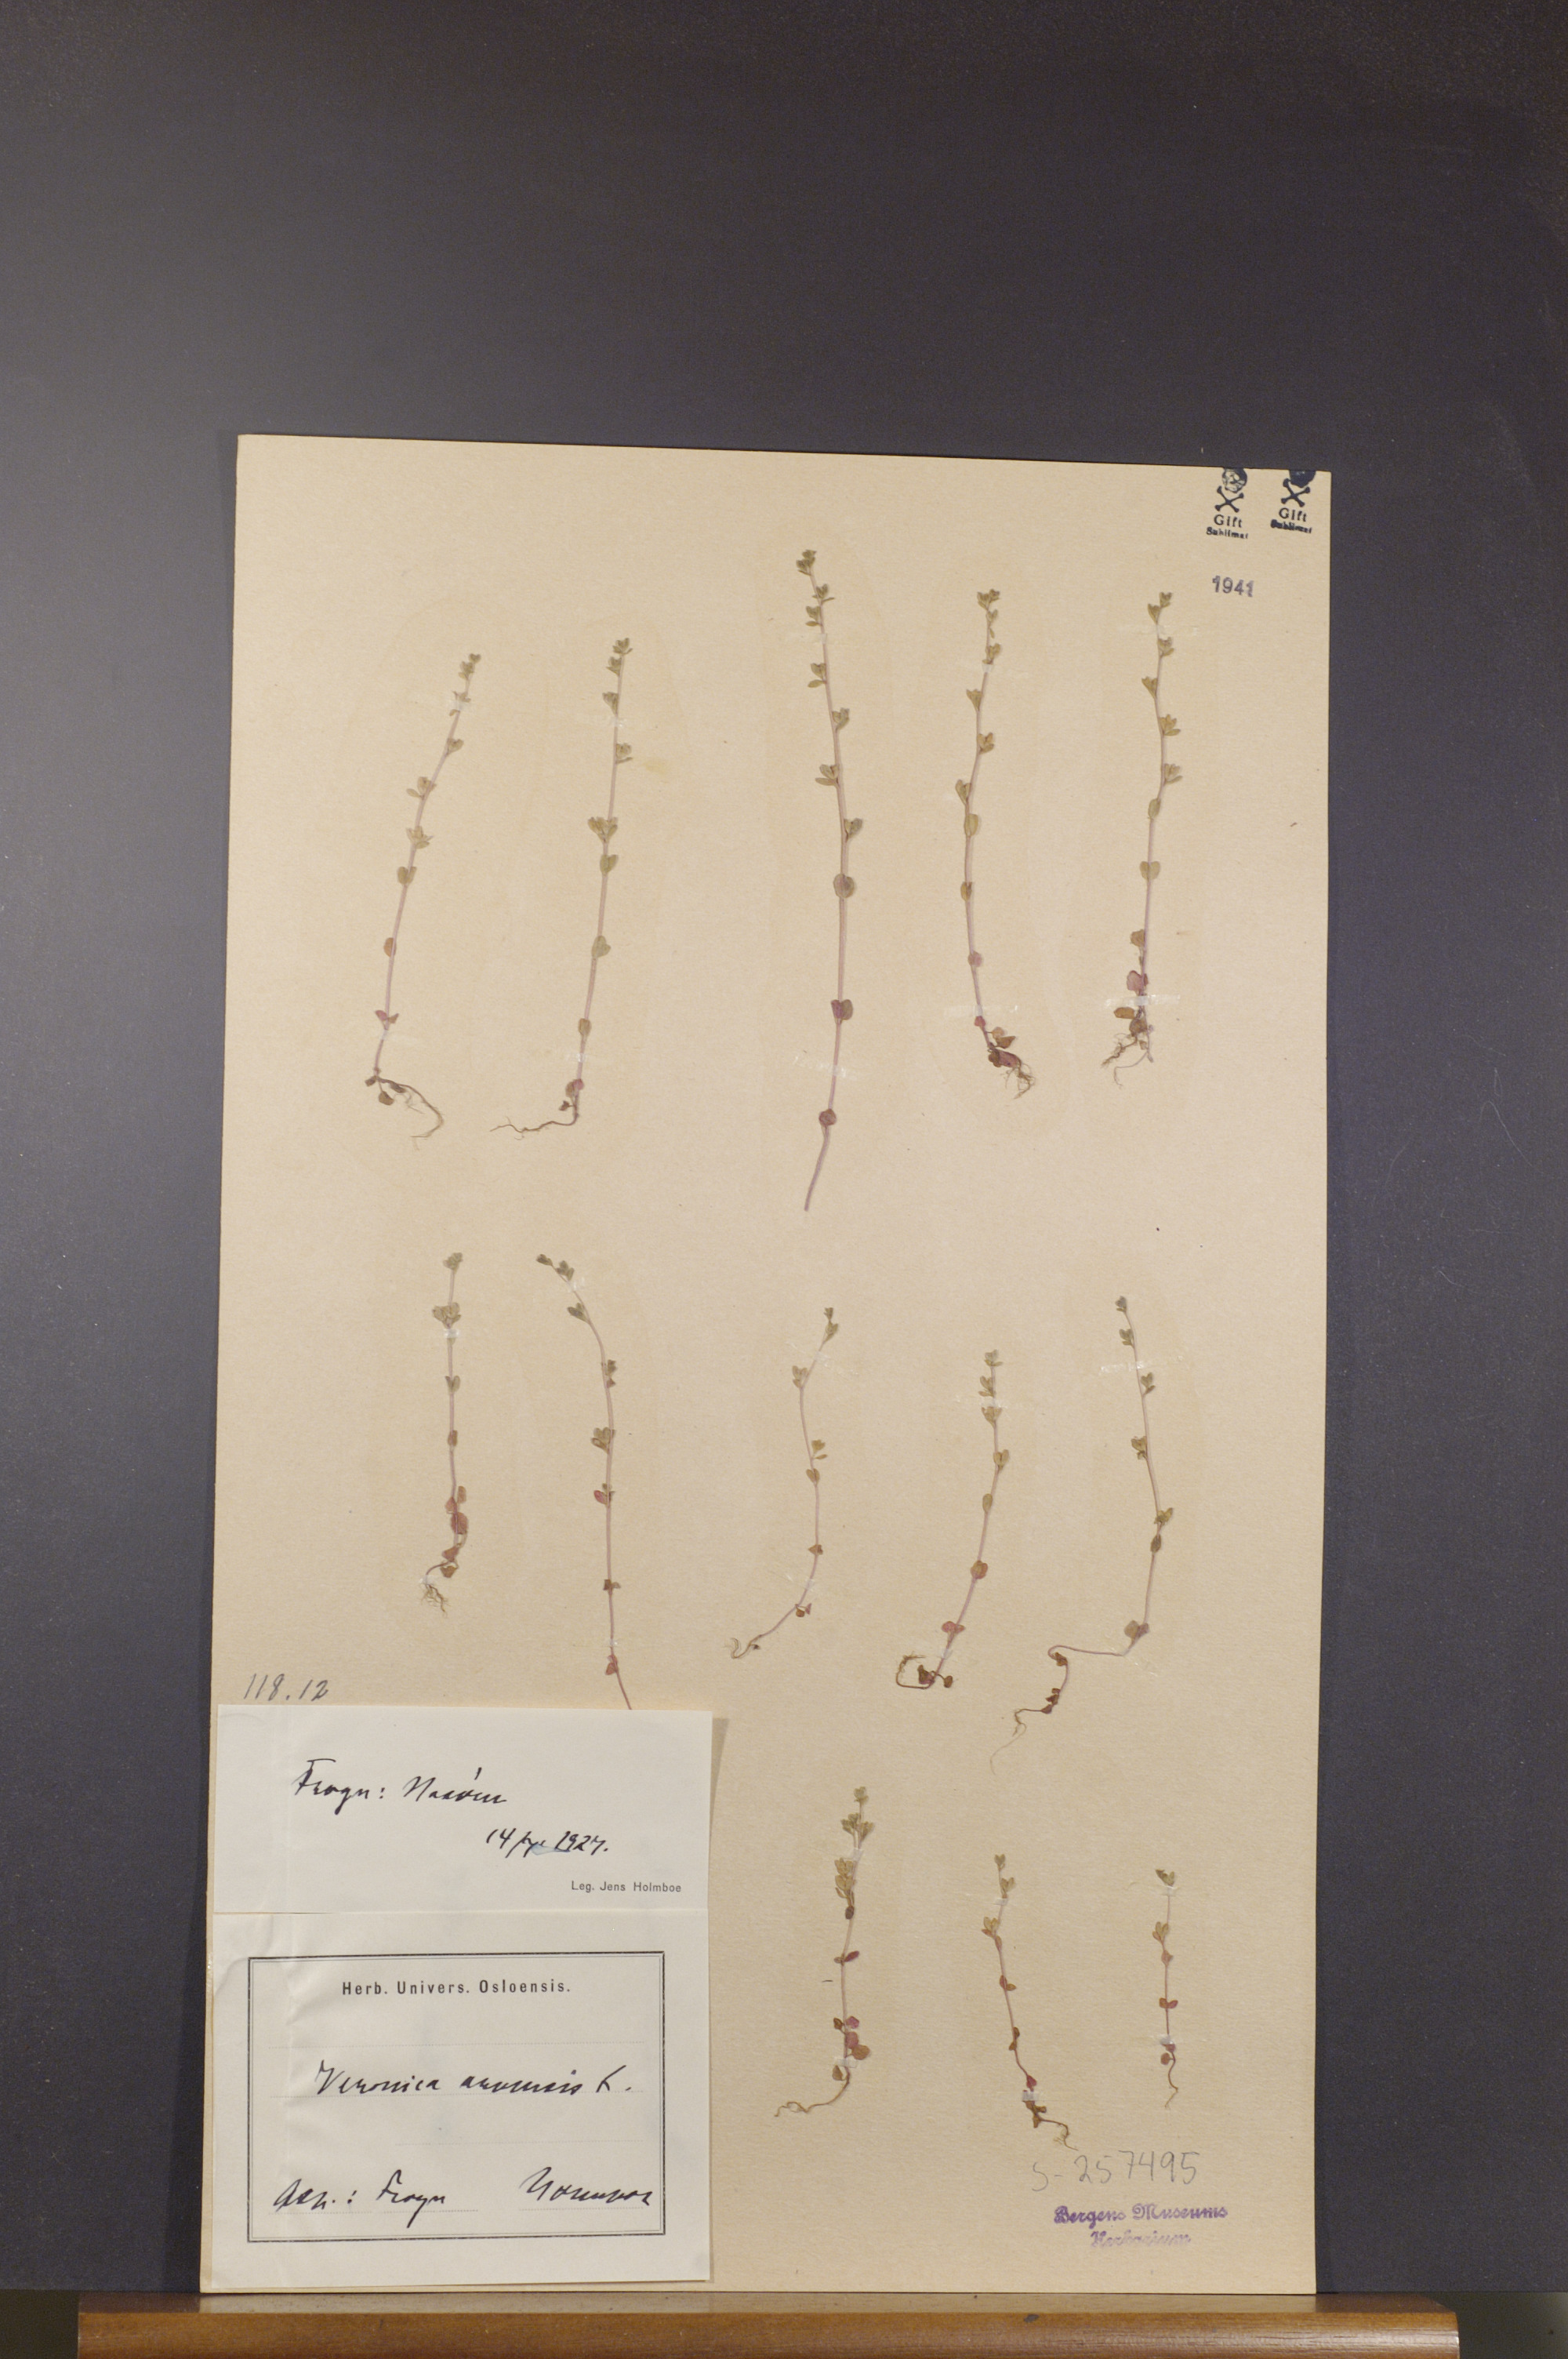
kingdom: Plantae
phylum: Tracheophyta
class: Magnoliopsida
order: Lamiales
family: Plantaginaceae
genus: Veronica
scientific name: Veronica arvensis
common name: Corn speedwell
